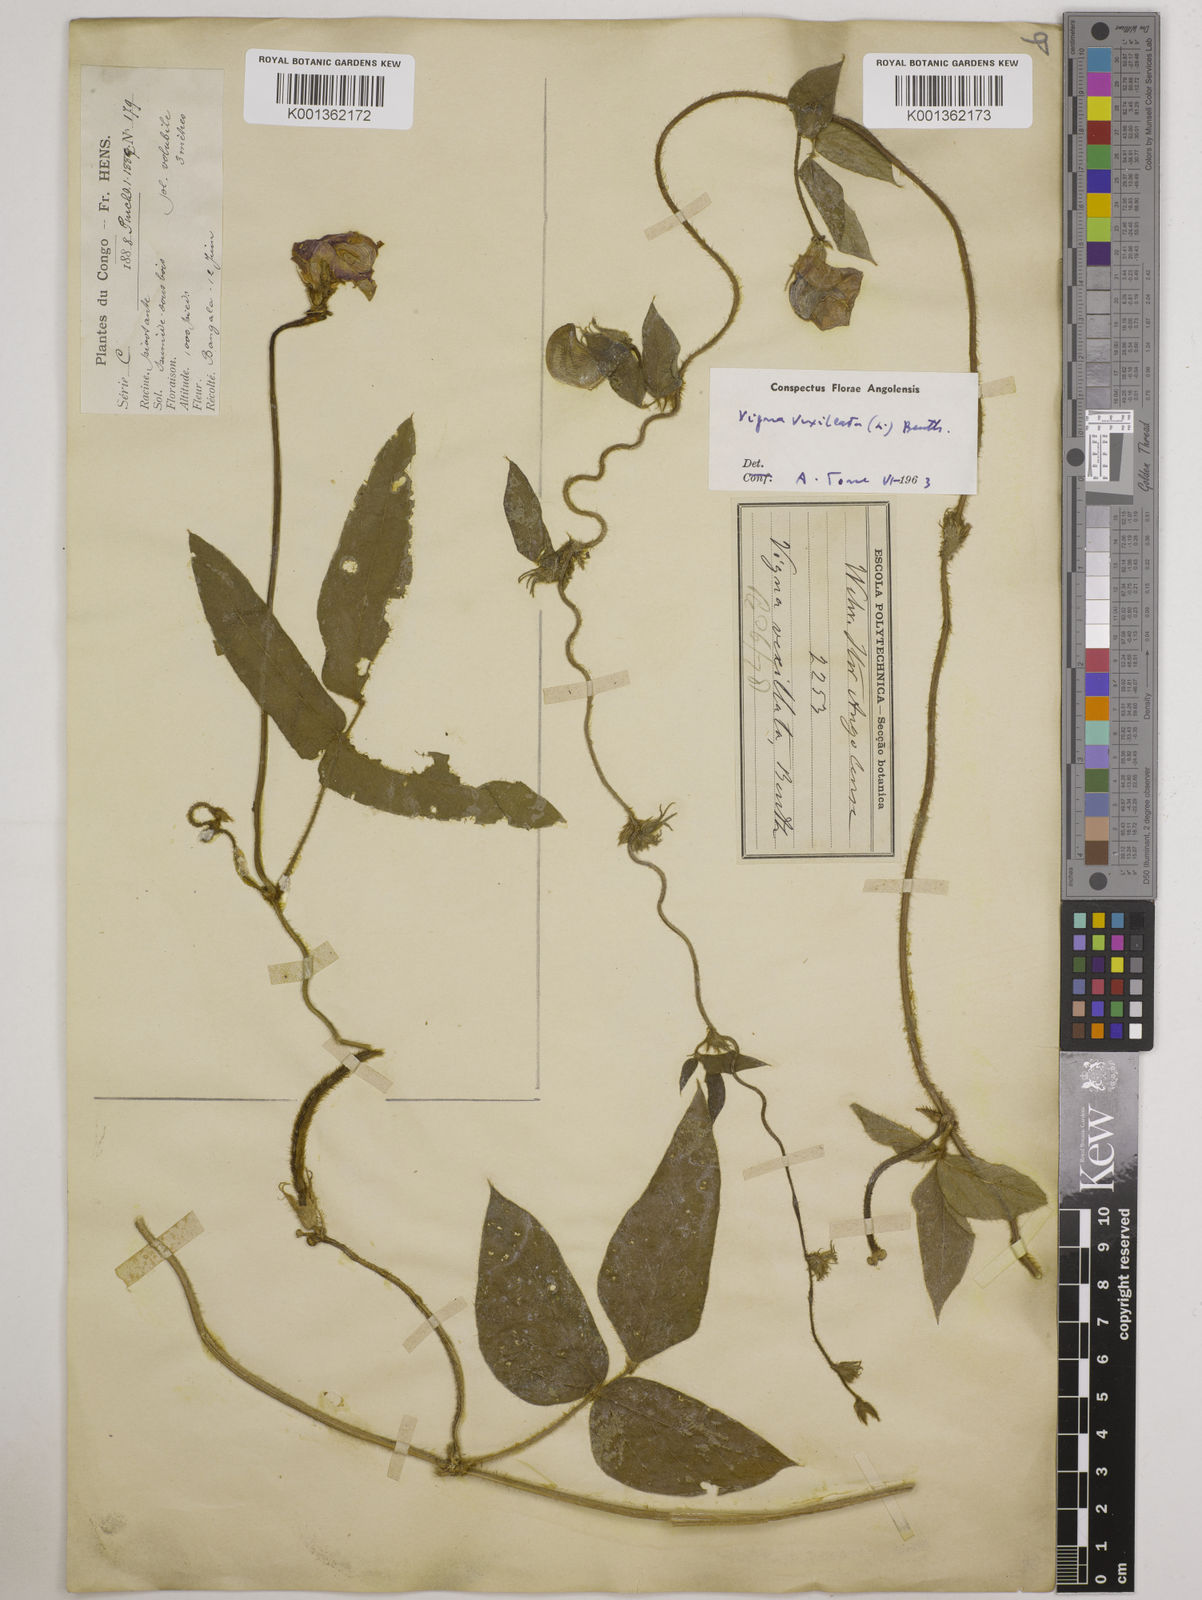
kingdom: Plantae
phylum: Tracheophyta
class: Magnoliopsida
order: Fabales
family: Fabaceae
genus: Vigna
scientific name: Vigna vexillata
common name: Zombi pea
